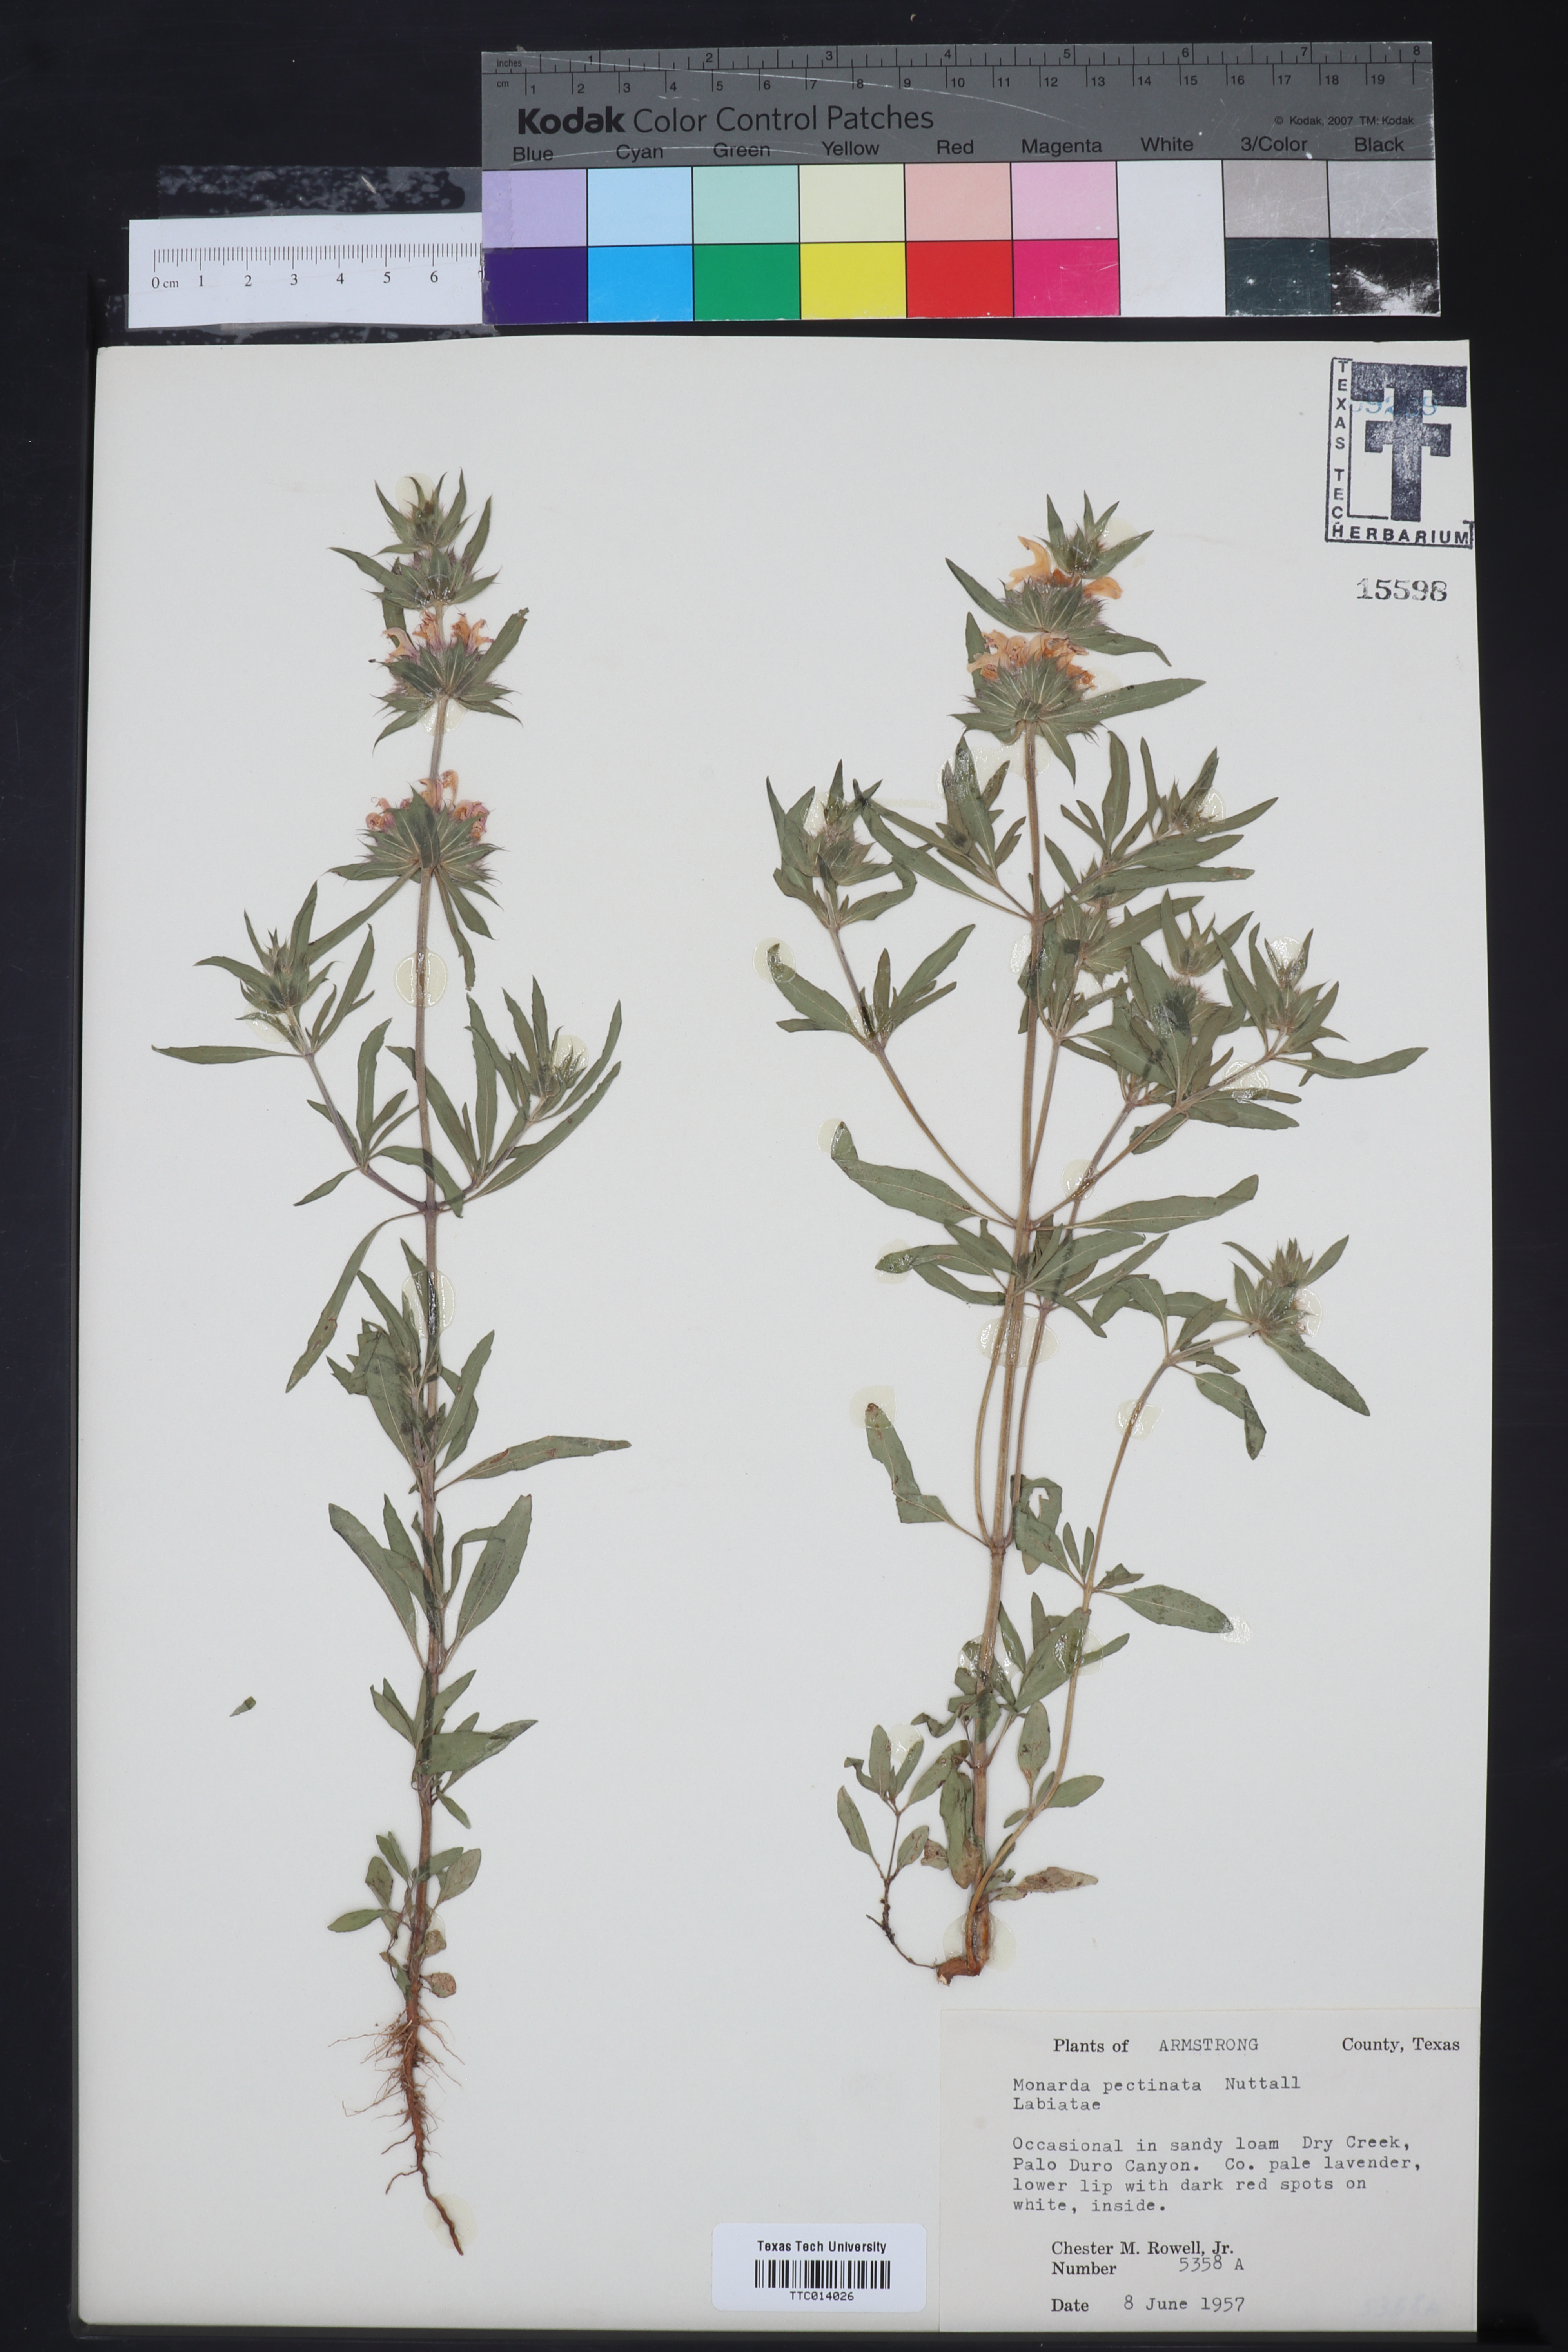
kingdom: Plantae
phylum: Tracheophyta
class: Magnoliopsida
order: Lamiales
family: Lamiaceae
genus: Monarda
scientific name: Monarda pectinata
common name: Plains beebalm
